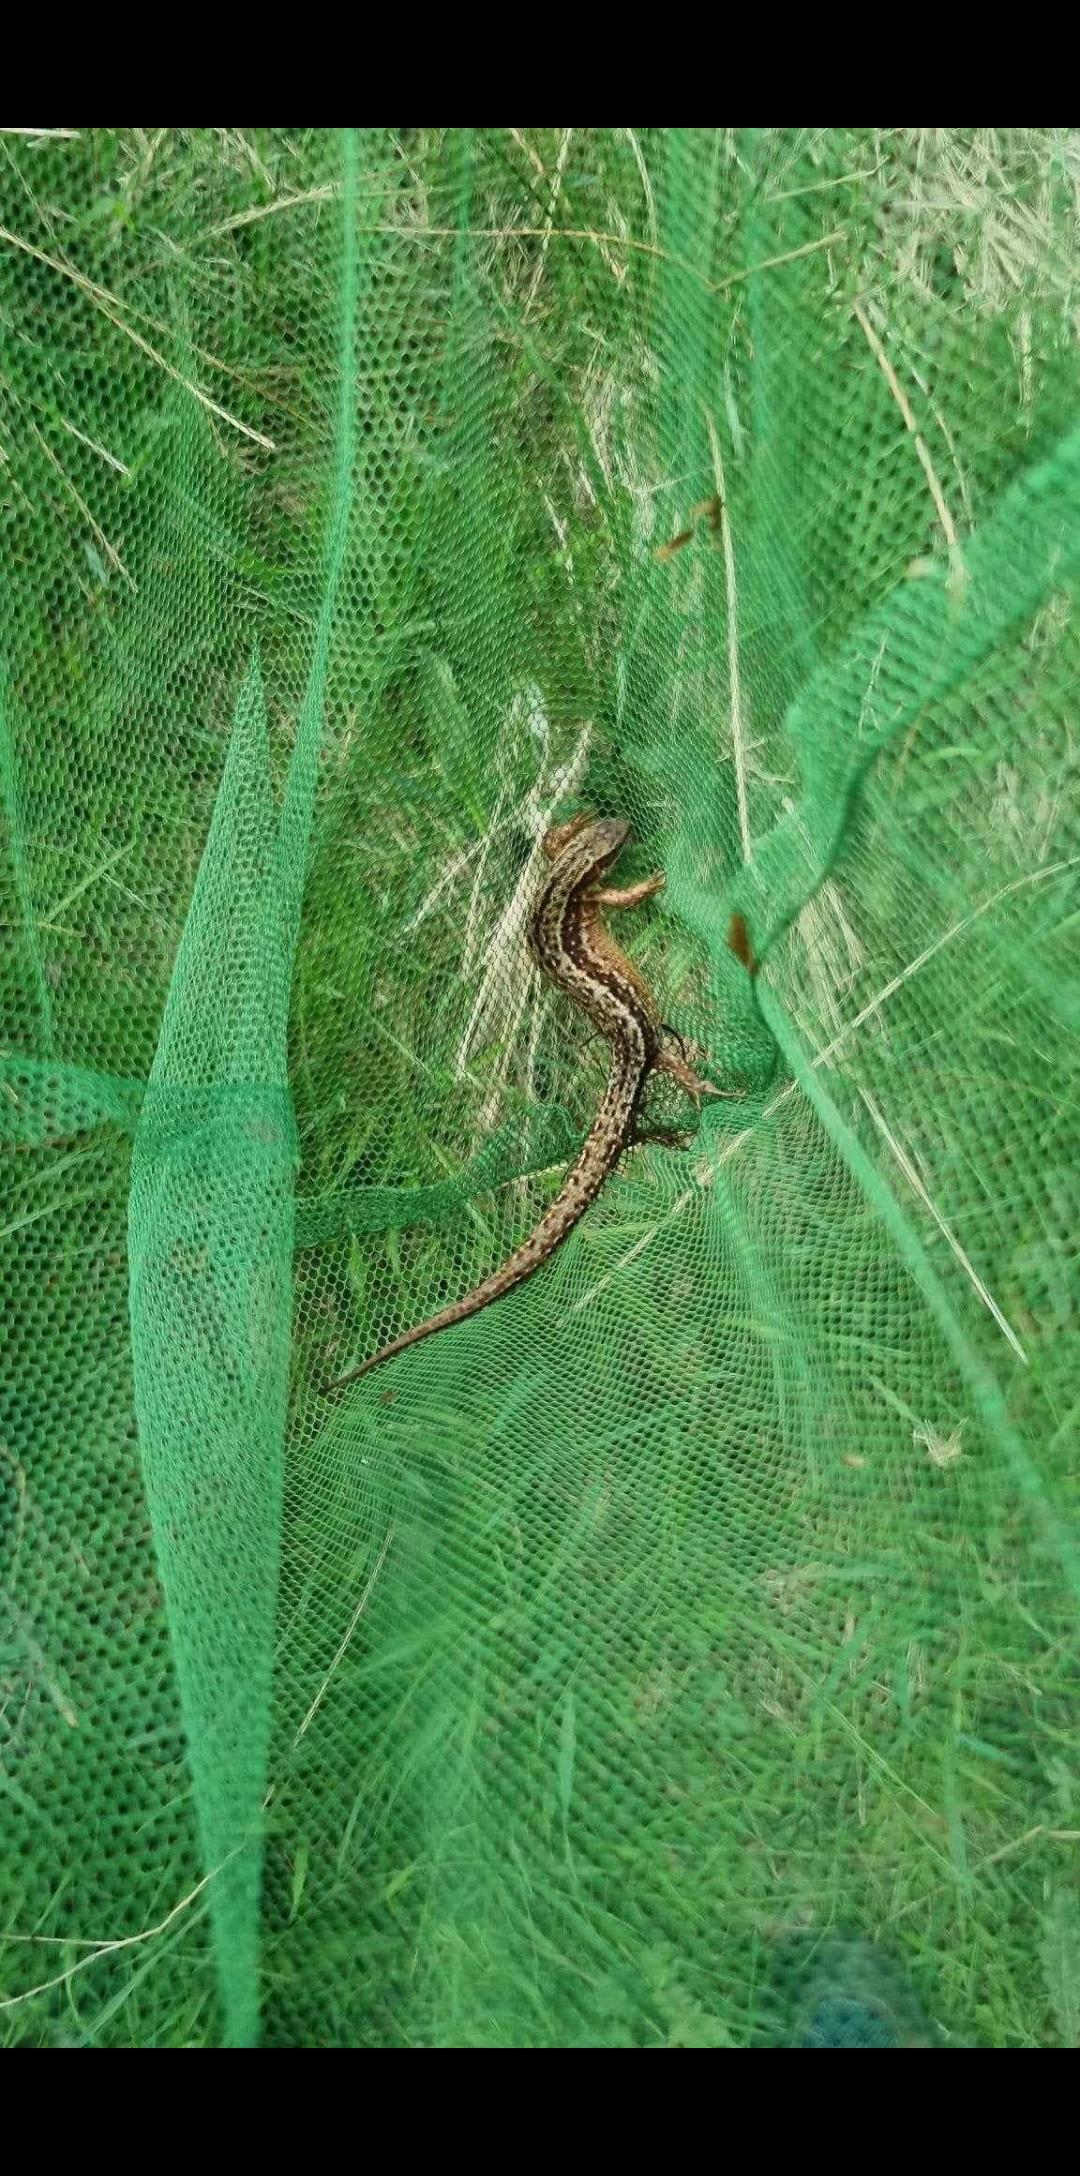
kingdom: Animalia
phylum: Chordata
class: Squamata
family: Lacertidae
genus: Zootoca
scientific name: Zootoca vivipara
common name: Skovfirben
